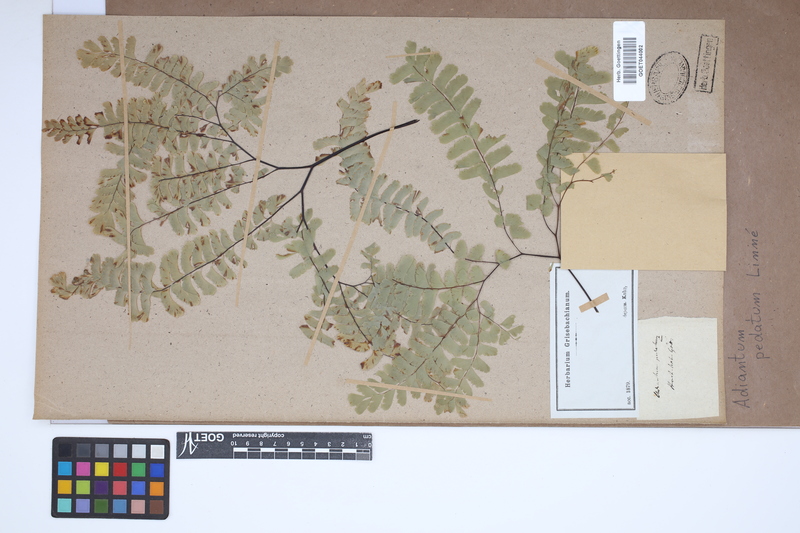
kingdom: Plantae
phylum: Tracheophyta
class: Polypodiopsida
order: Polypodiales
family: Pteridaceae
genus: Adiantum
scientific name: Adiantum pedatum
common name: Five-finger fern
